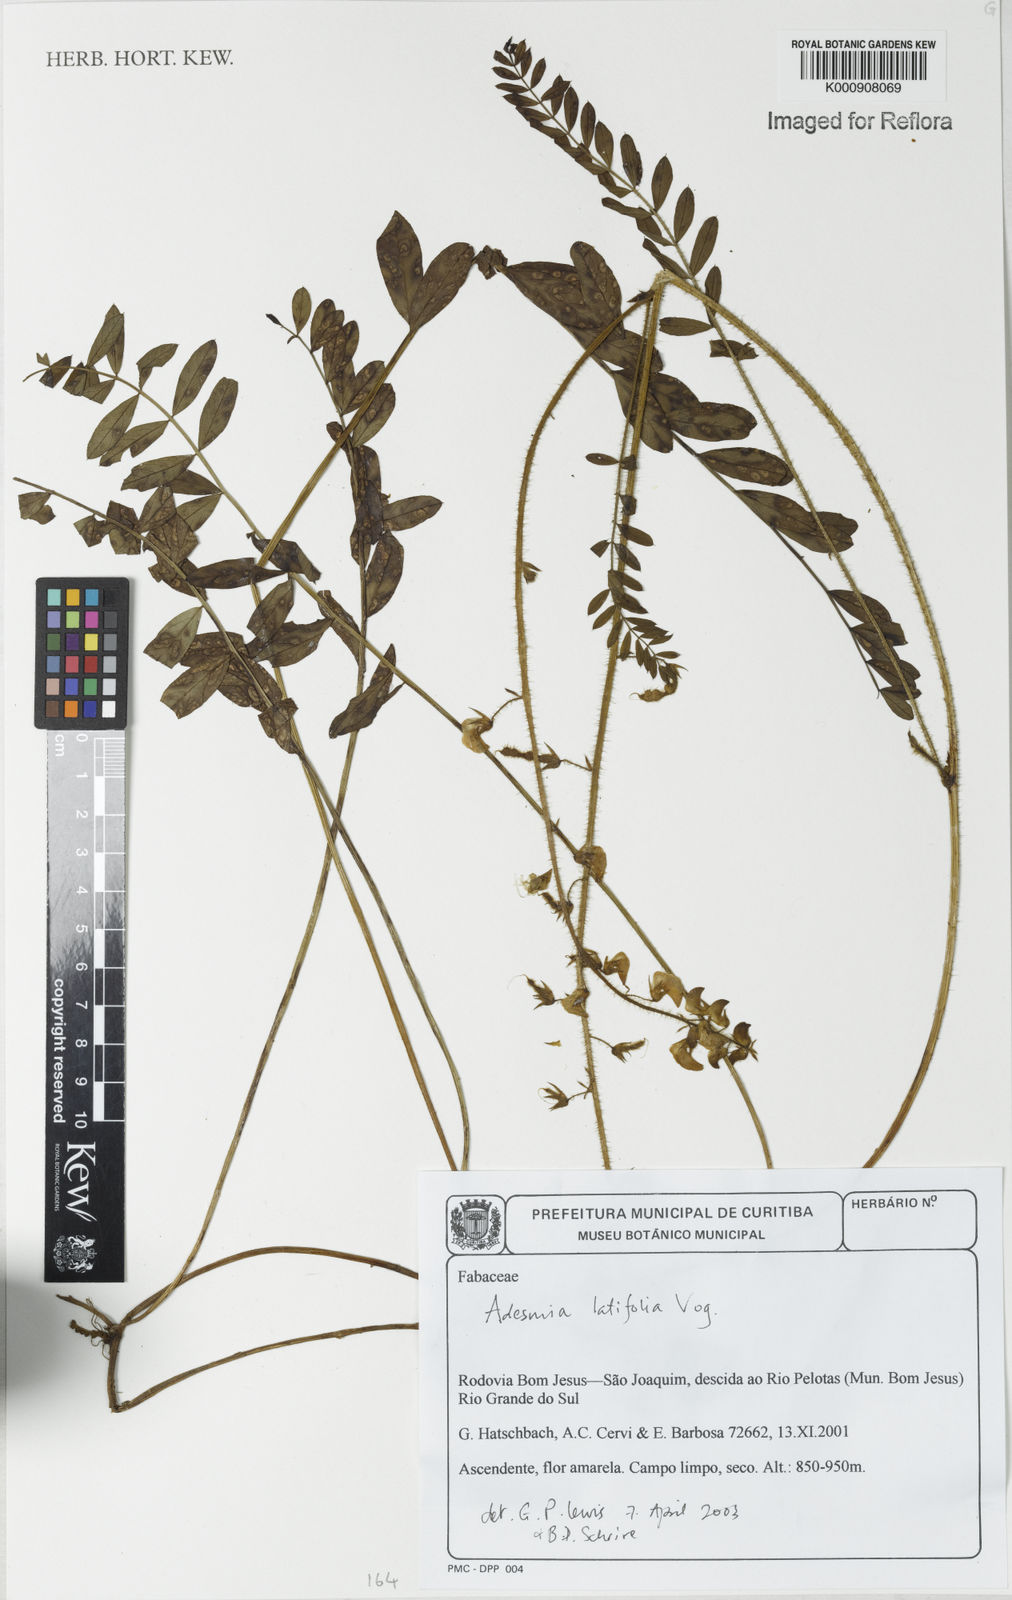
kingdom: Plantae
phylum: Tracheophyta
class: Magnoliopsida
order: Fabales
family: Fabaceae
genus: Adesmia
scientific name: Adesmia latifolia
